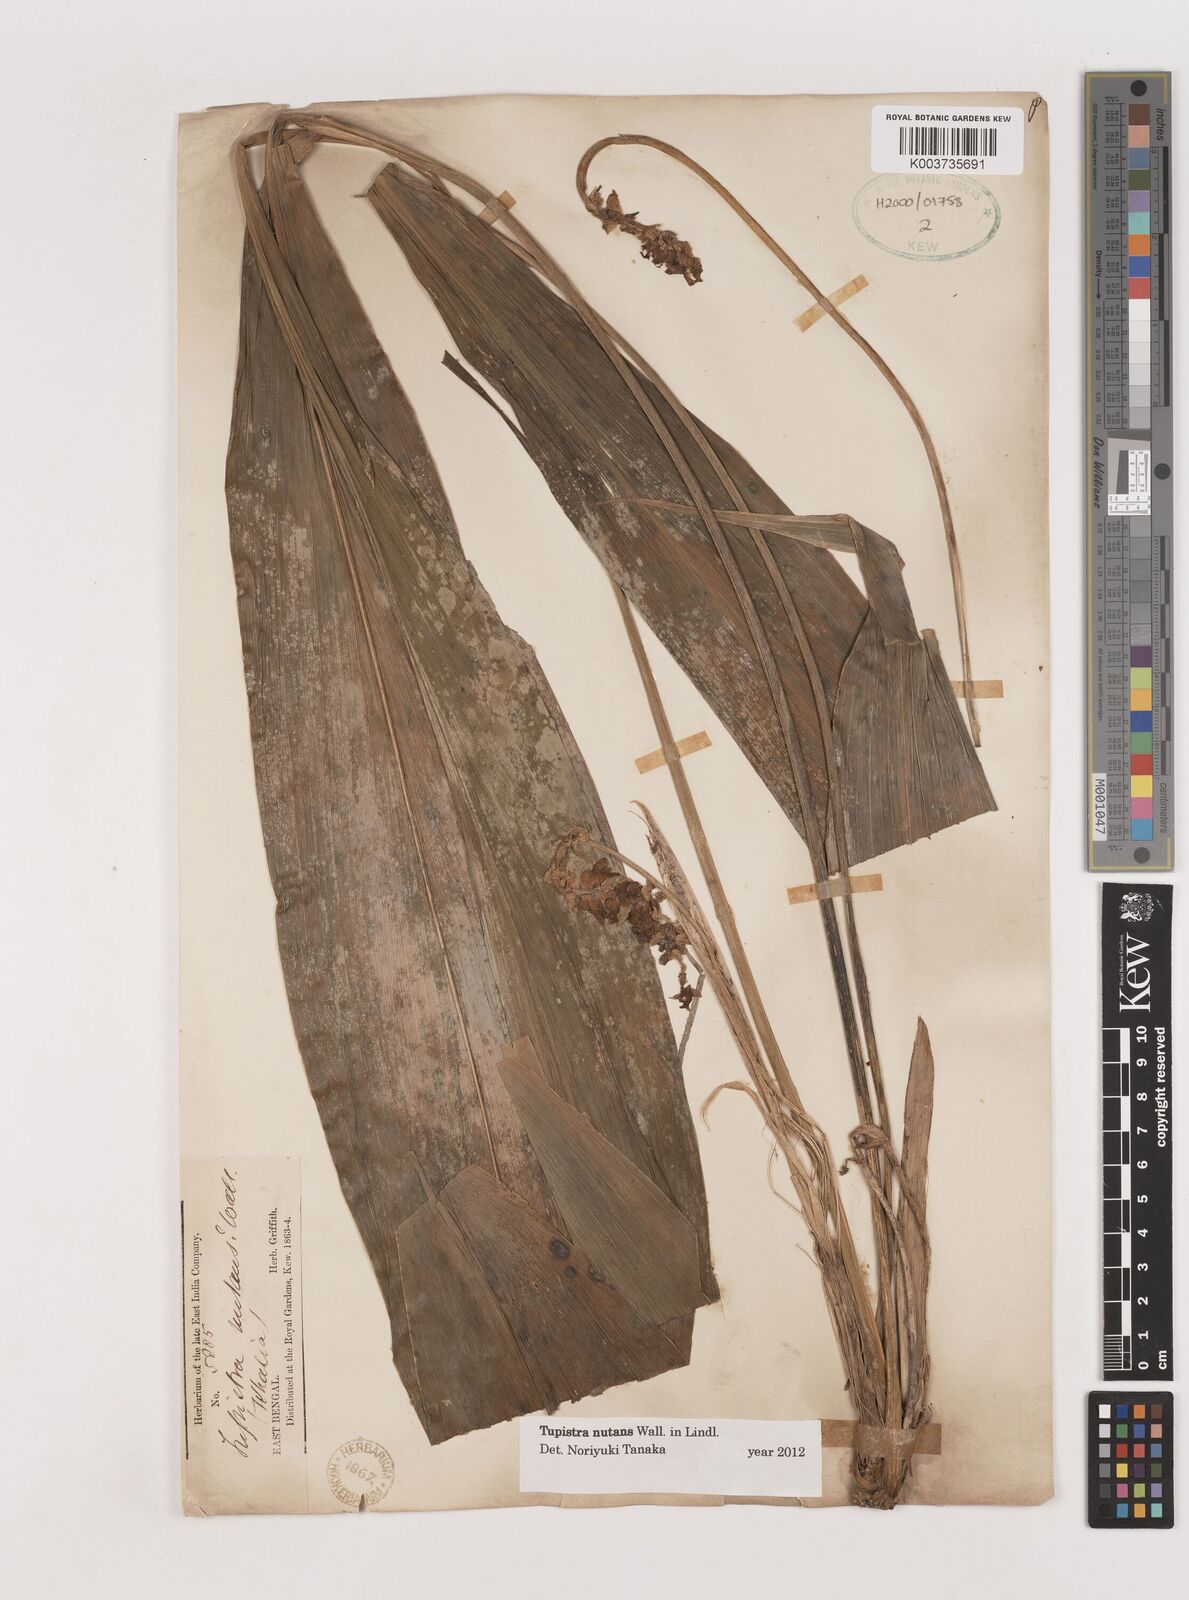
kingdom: Plantae
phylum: Tracheophyta
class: Liliopsida
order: Asparagales
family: Asparagaceae
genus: Tupistra
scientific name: Tupistra nutans
